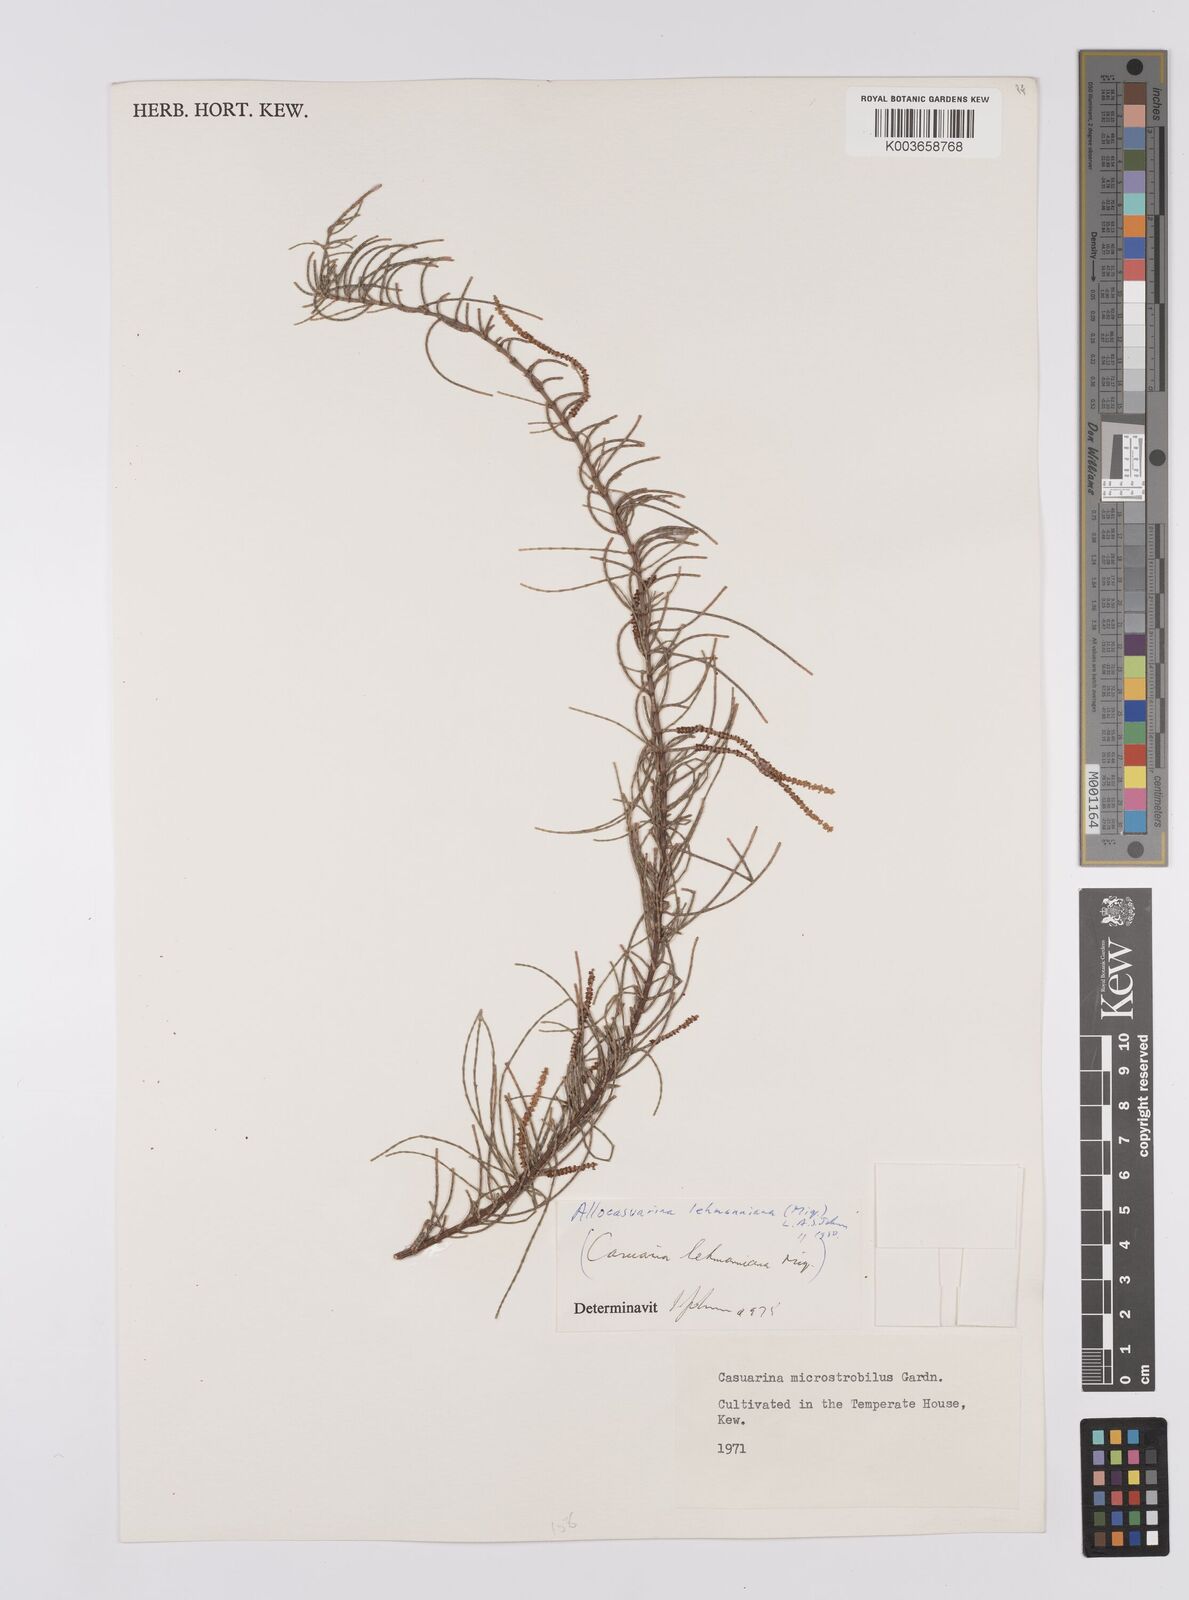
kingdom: Plantae
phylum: Tracheophyta
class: Magnoliopsida
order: Fagales
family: Casuarinaceae
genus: Allocasuarina
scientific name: Allocasuarina lehmanniana
